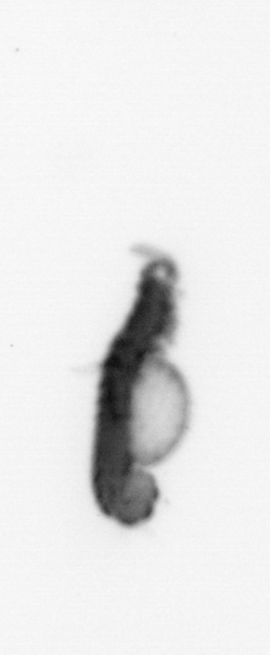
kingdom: Animalia
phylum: Annelida
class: Polychaeta
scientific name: Polychaeta
